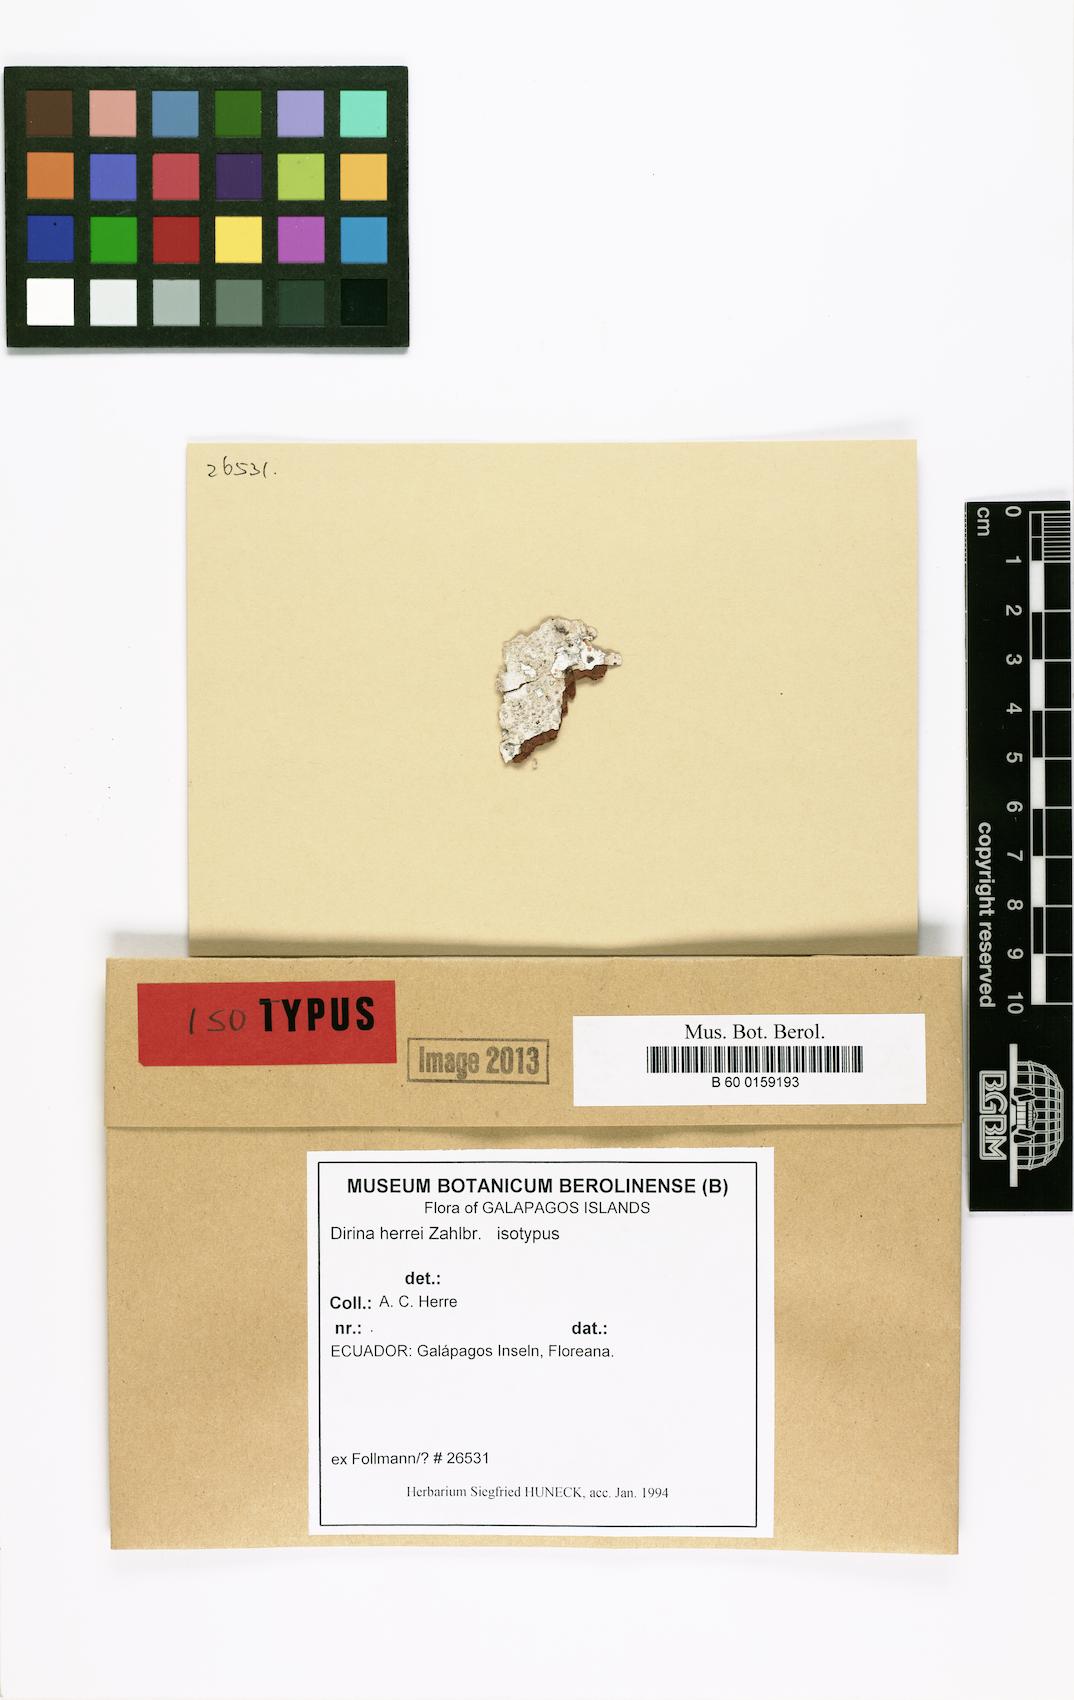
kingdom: Fungi
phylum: Ascomycota
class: Arthoniomycetes
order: Arthoniales
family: Roccellaceae
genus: Dirina
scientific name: Dirina approximata
